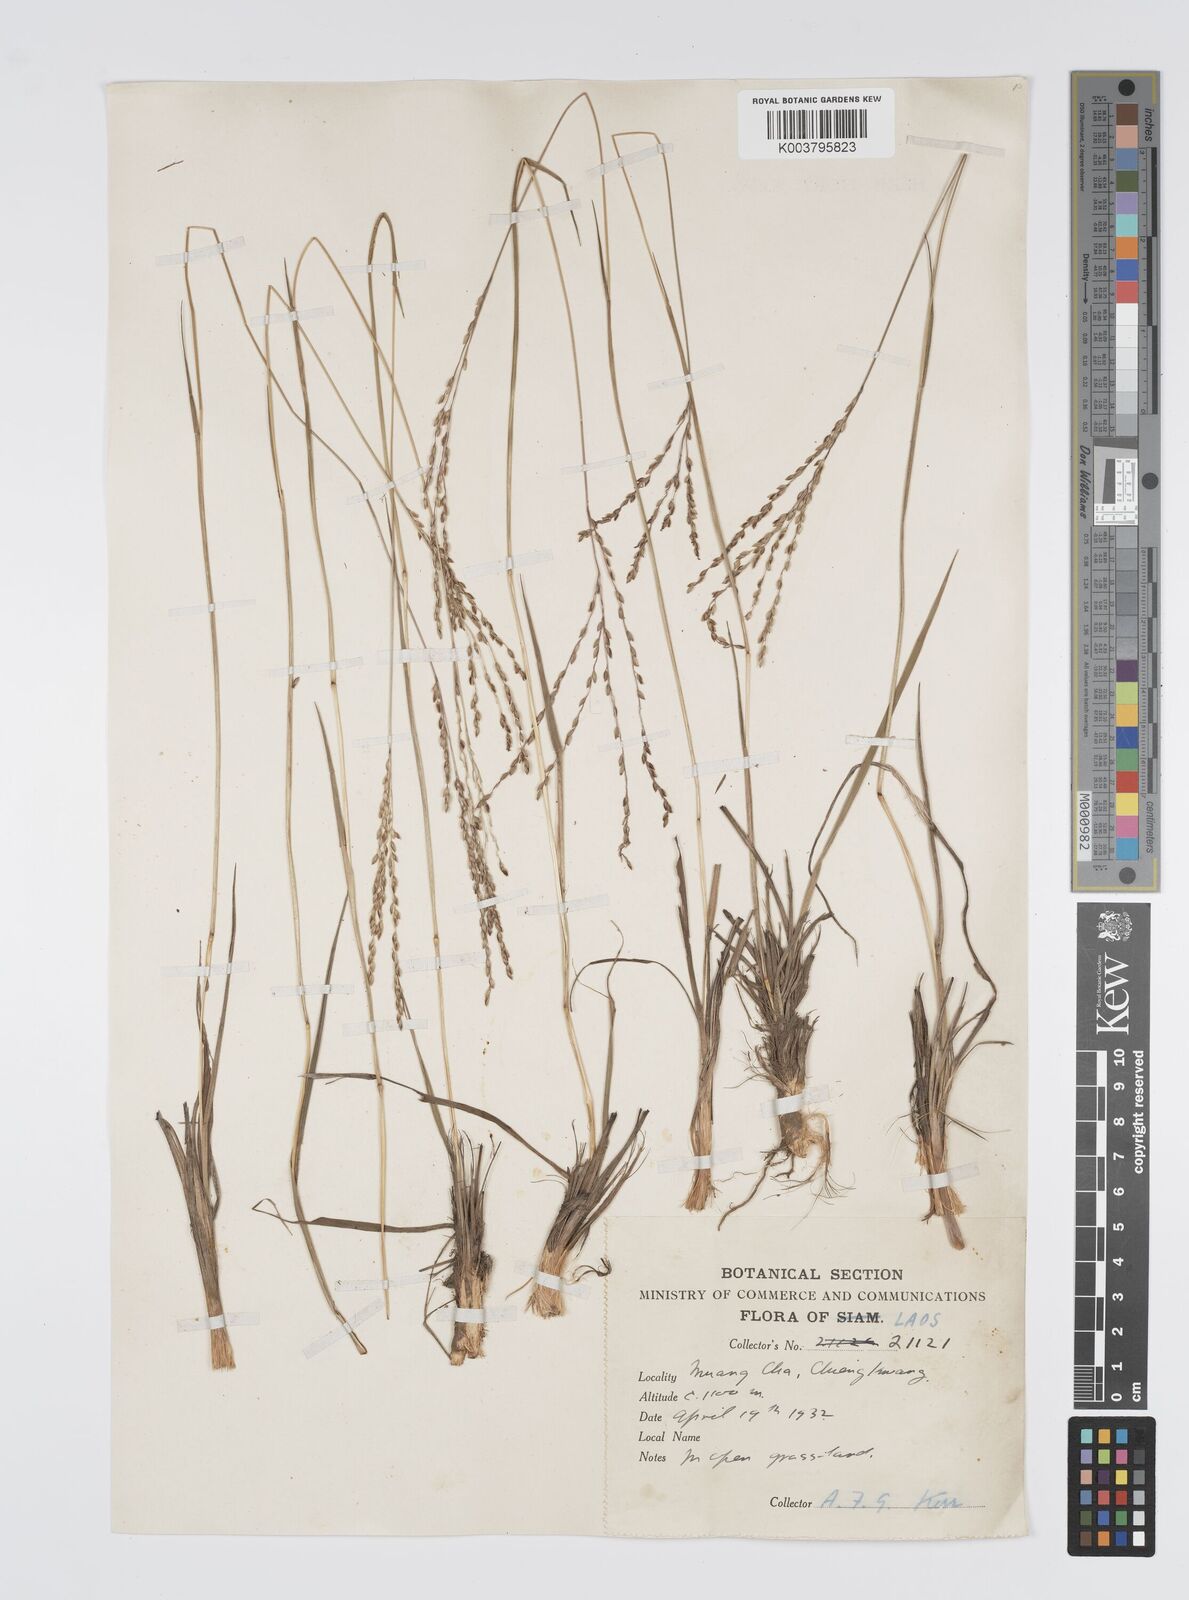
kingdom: Plantae
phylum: Tracheophyta
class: Liliopsida
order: Poales
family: Poaceae
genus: Digitaria
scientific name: Digitaria setifolia
